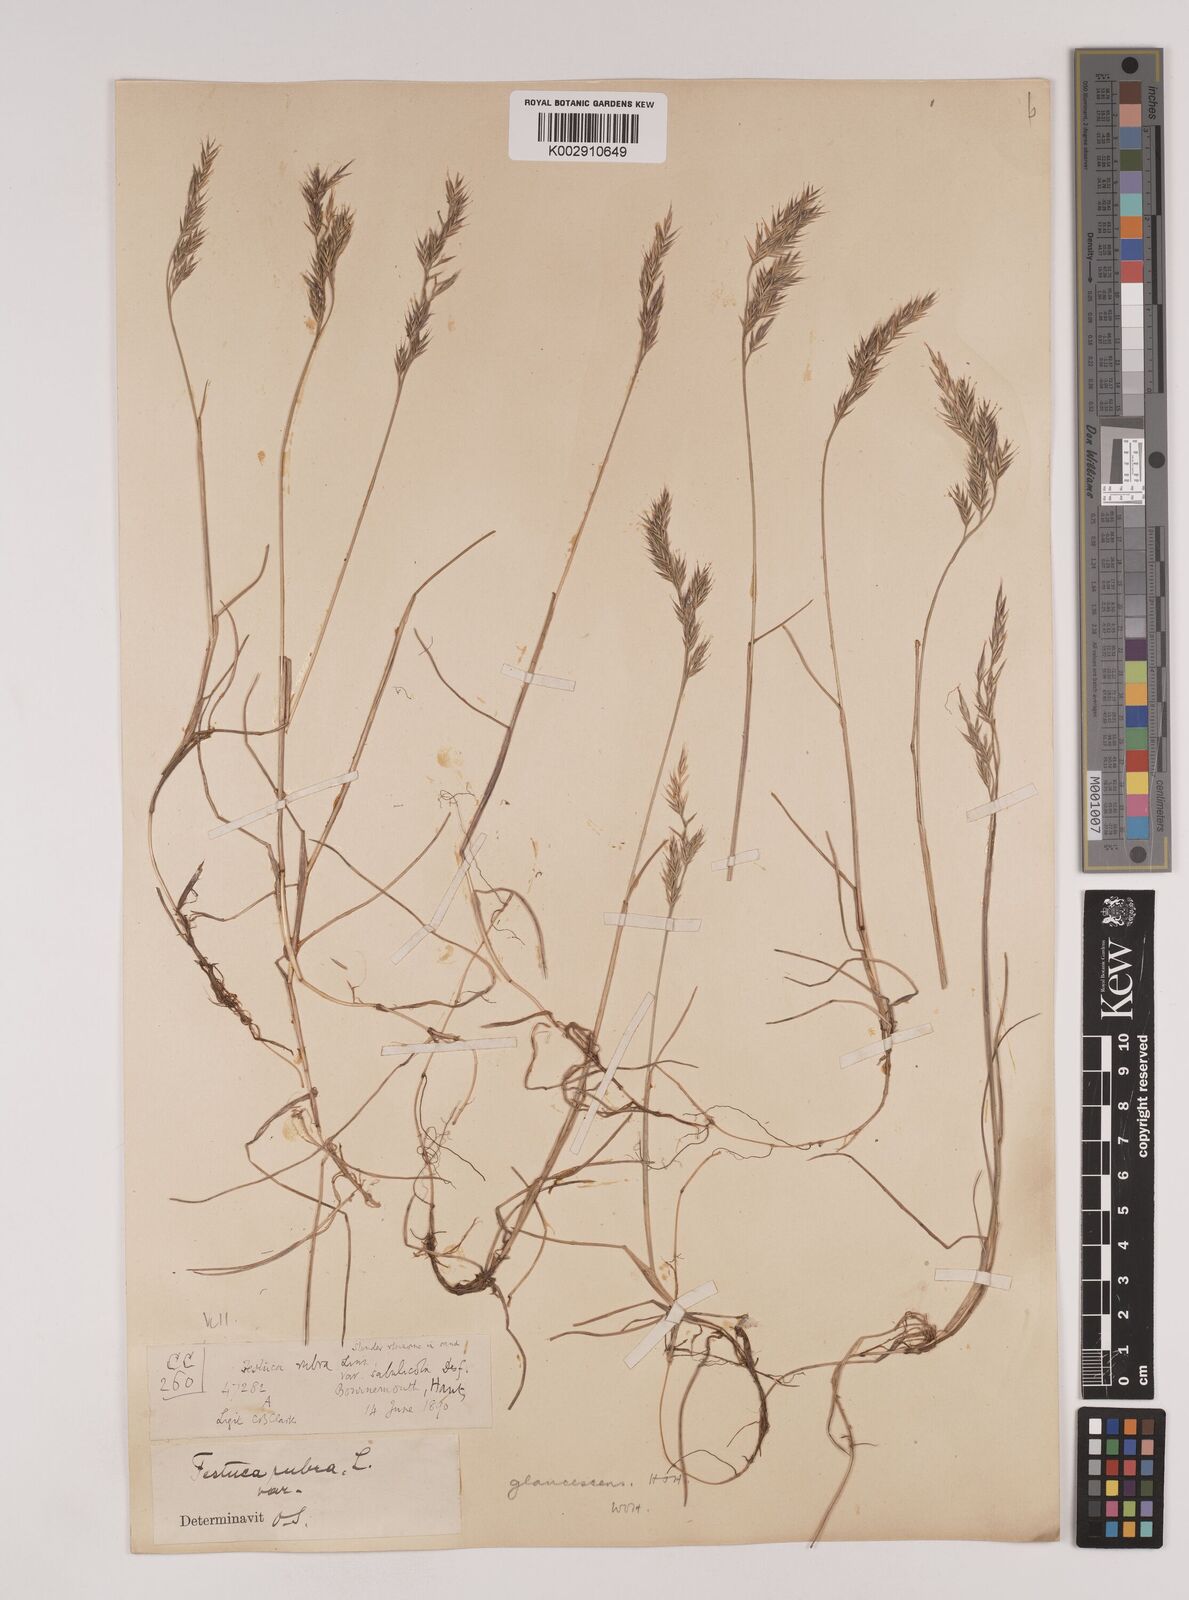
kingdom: Plantae
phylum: Tracheophyta
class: Liliopsida
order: Poales
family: Poaceae
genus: Festuca
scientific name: Festuca rubra
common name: Red fescue
